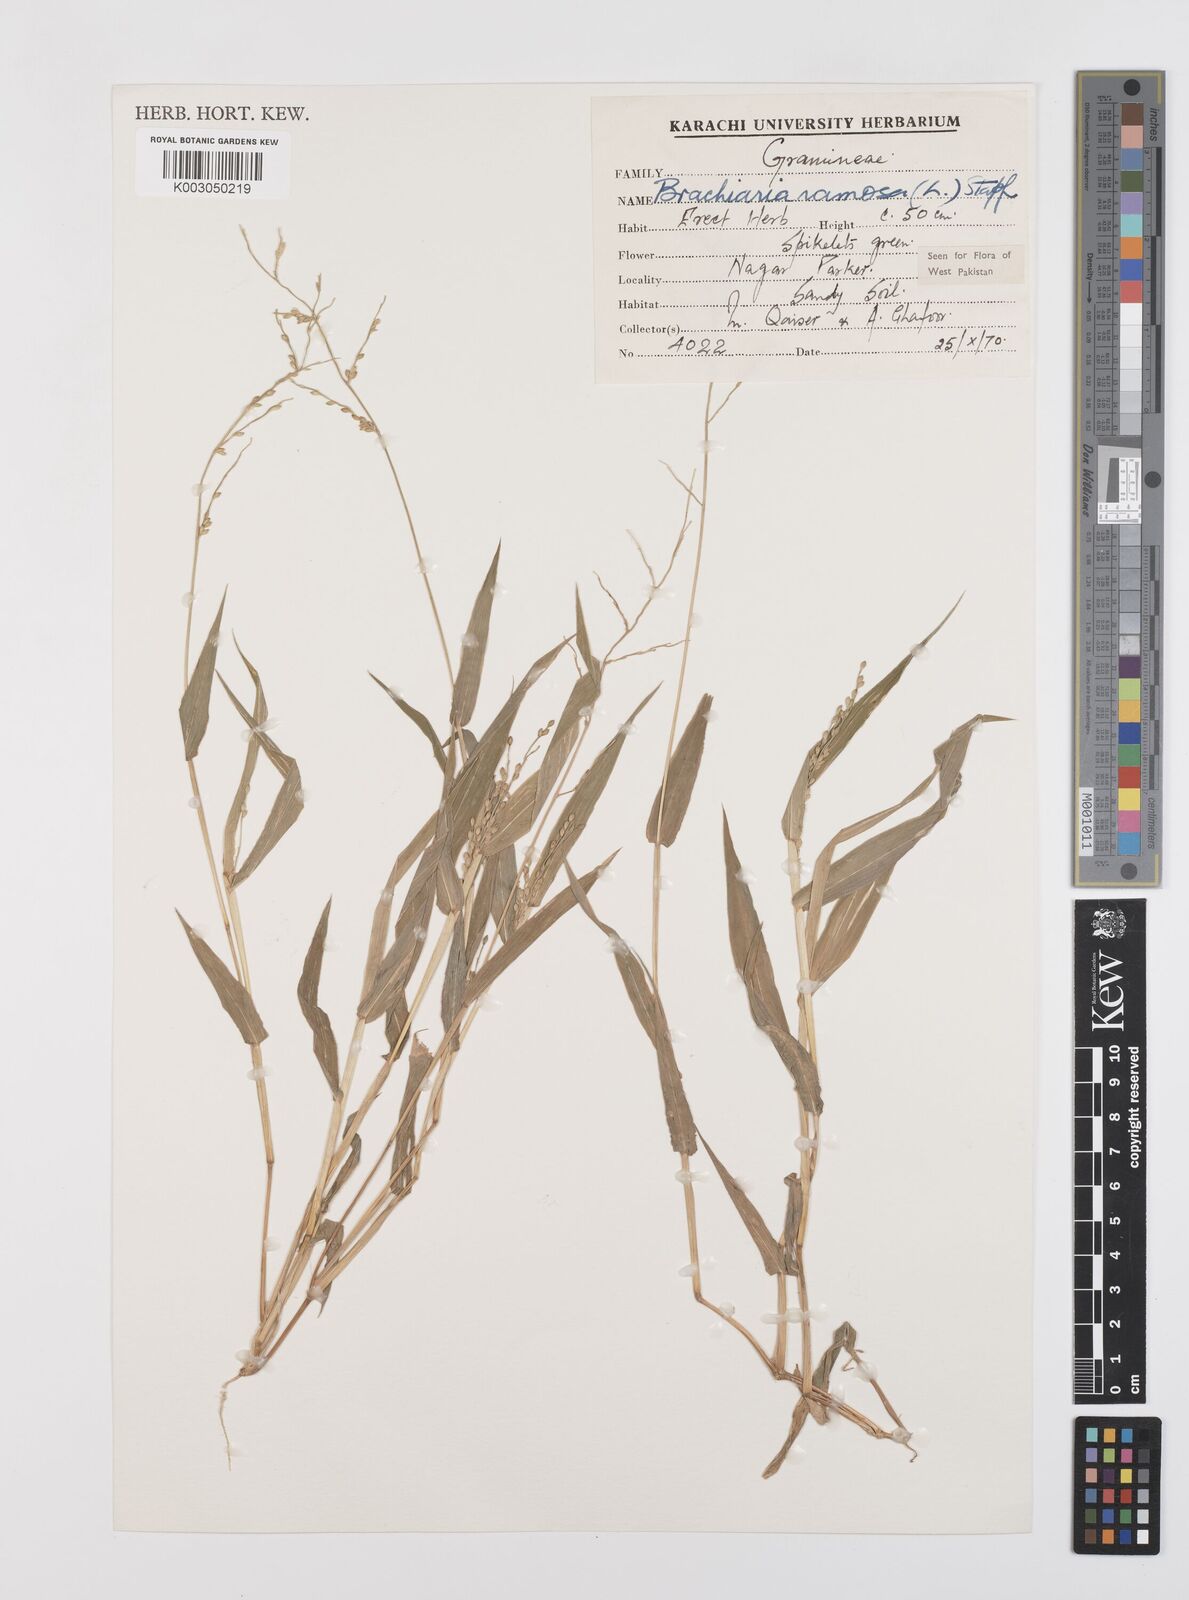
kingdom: Plantae
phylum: Tracheophyta
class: Liliopsida
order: Poales
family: Poaceae
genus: Urochloa
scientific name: Urochloa ramosa
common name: Browntop millet
